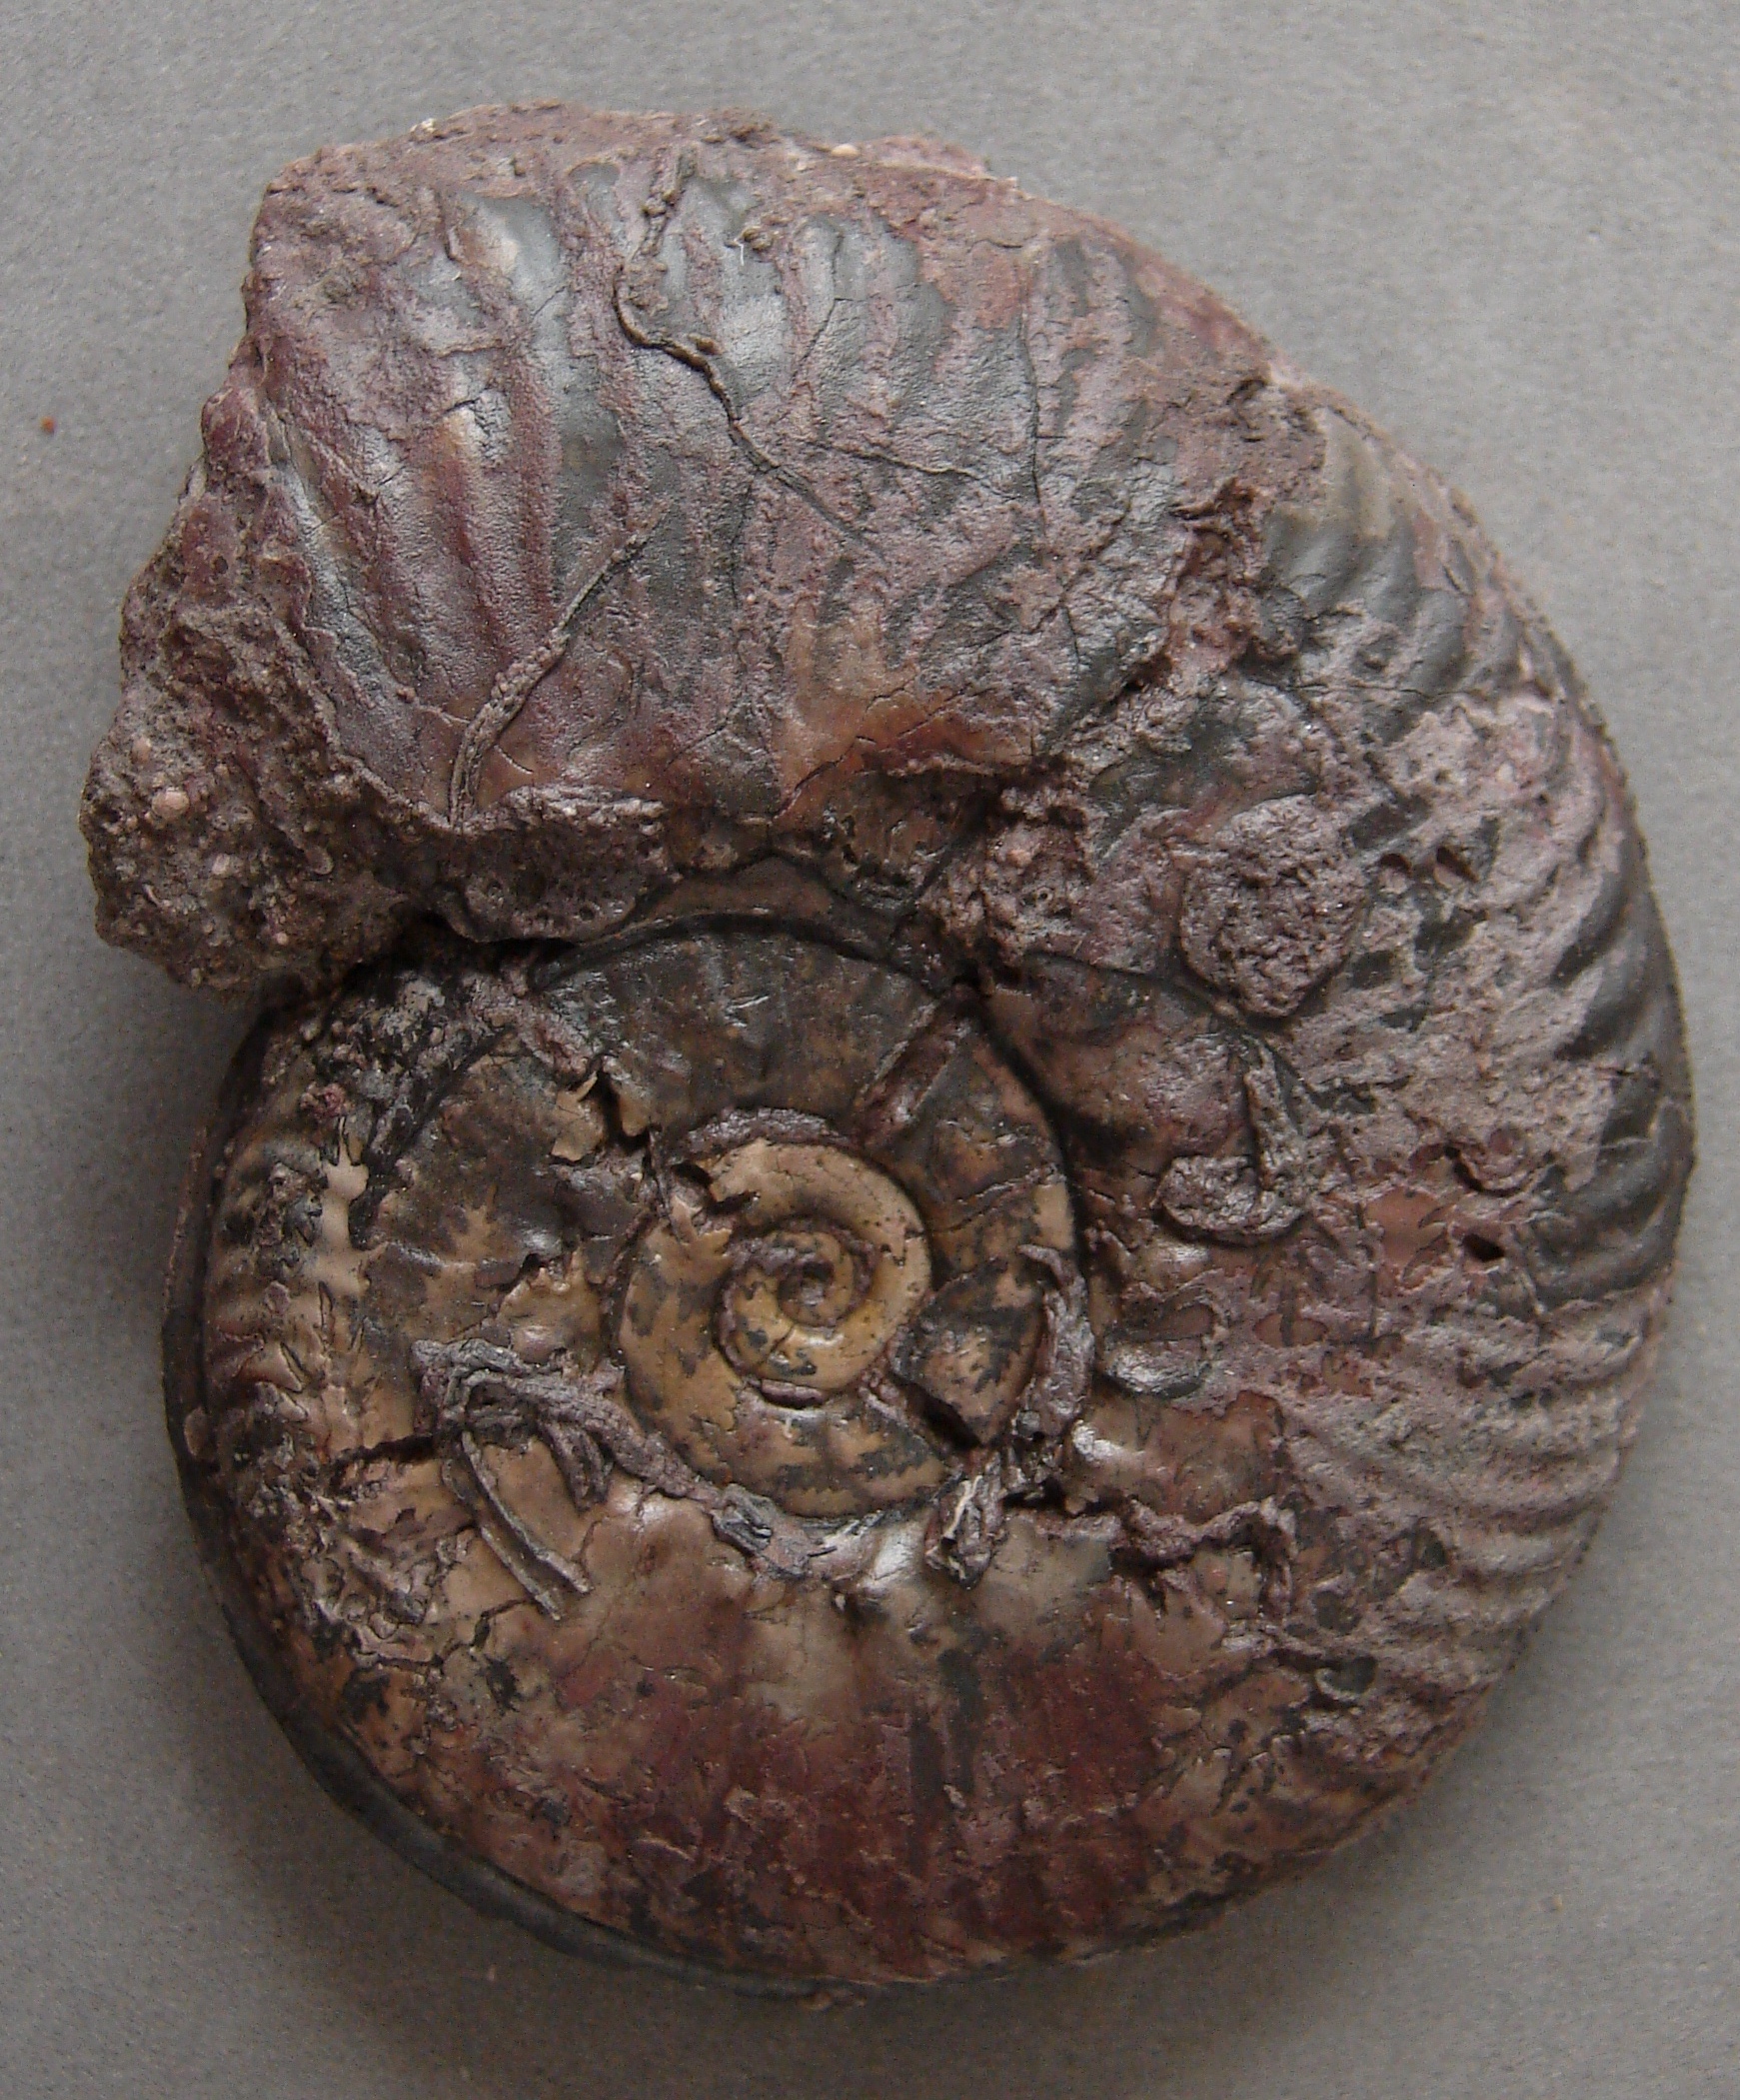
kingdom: Animalia
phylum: Mollusca
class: Cephalopoda
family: Phymatoceratidae
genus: Haugia
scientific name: Haugia illustris
